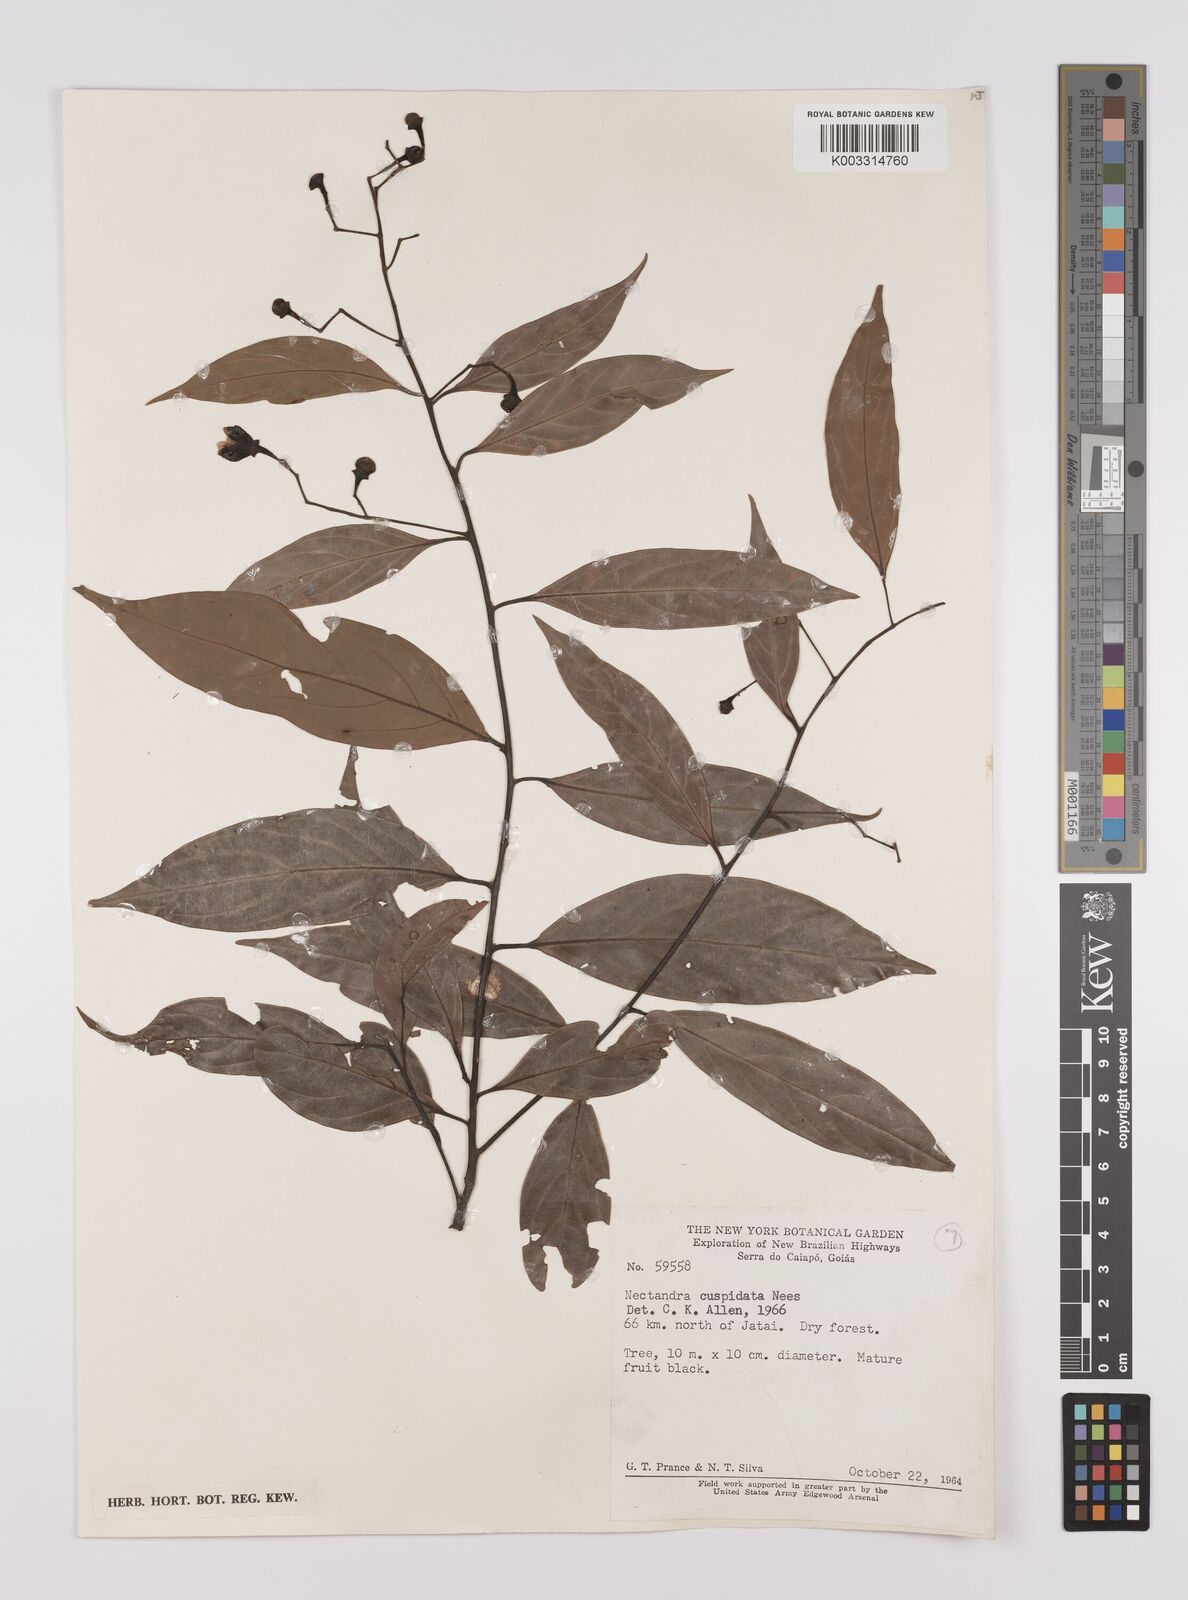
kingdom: Plantae
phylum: Tracheophyta
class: Magnoliopsida
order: Laurales
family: Lauraceae
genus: Nectandra
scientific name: Nectandra cuspidata
